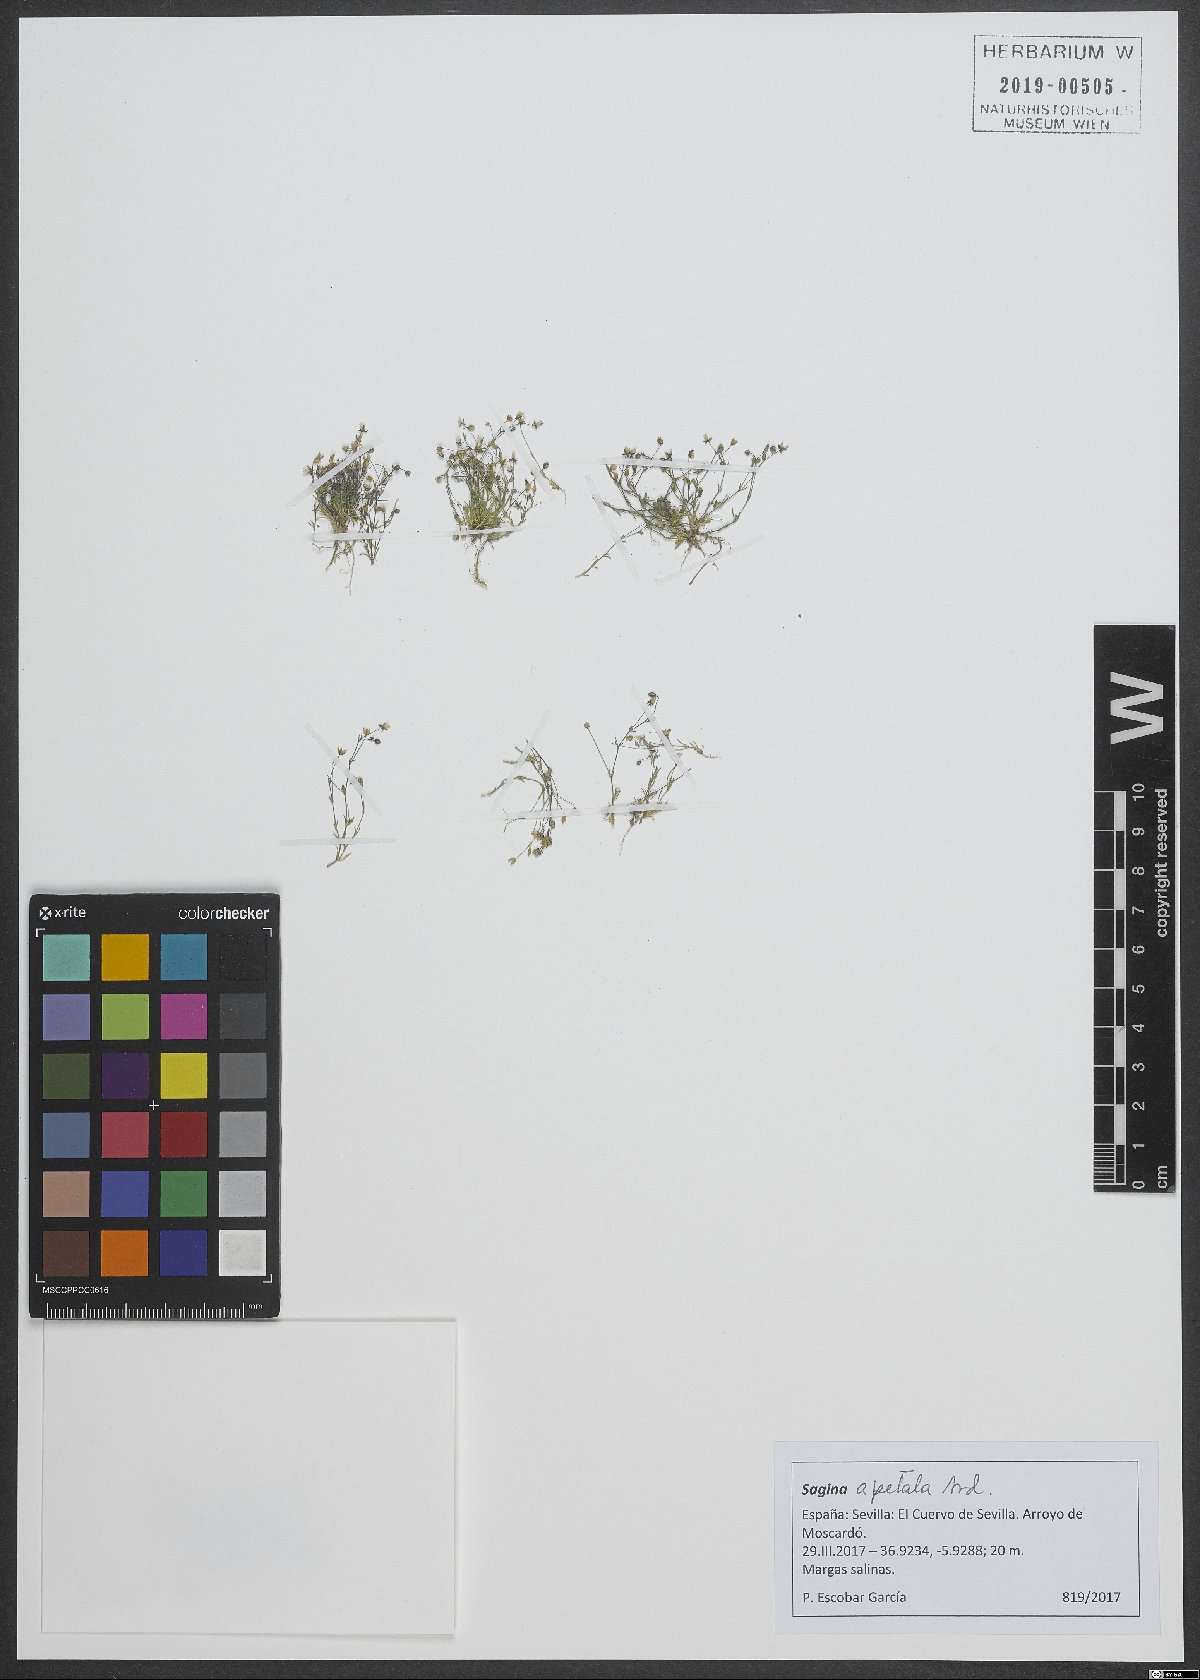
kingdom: Plantae
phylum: Tracheophyta
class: Magnoliopsida
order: Caryophyllales
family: Caryophyllaceae
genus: Sagina
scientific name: Sagina apetala
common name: Annual pearlwort
